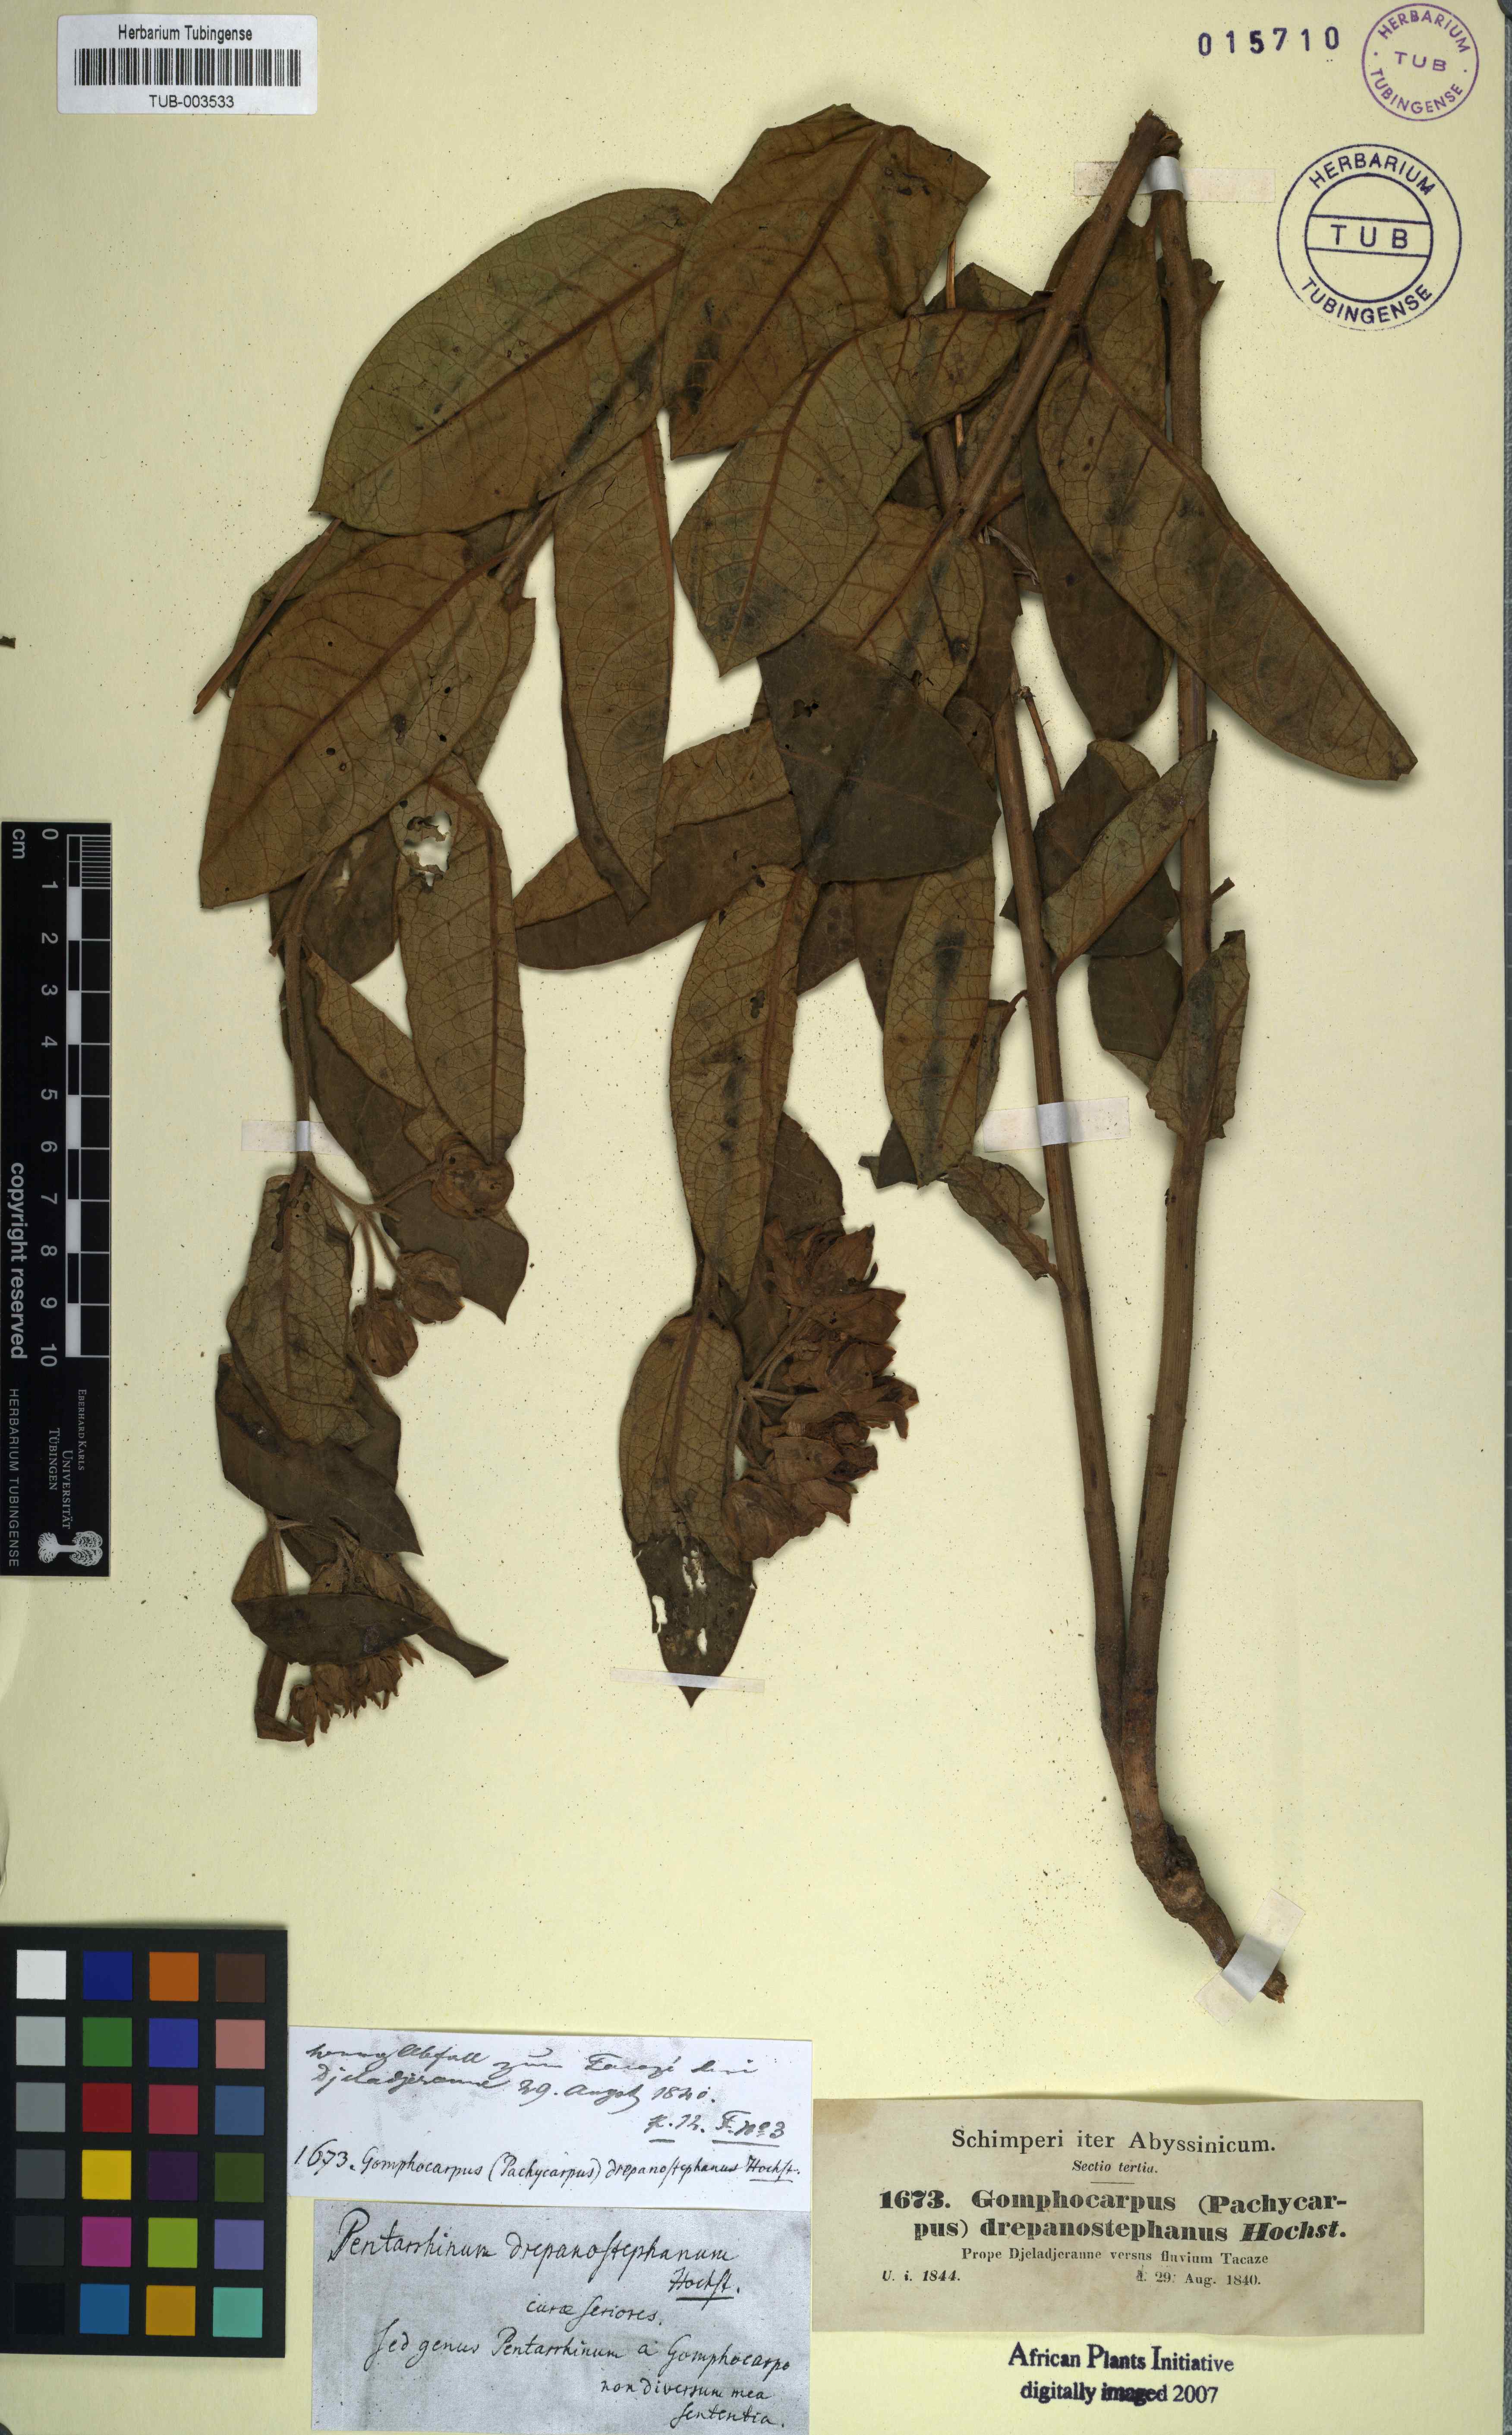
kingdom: Plantae
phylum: Tracheophyta
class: Magnoliopsida
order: Gentianales
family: Apocynaceae
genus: Pachycarpus
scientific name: Pachycarpus robustus
